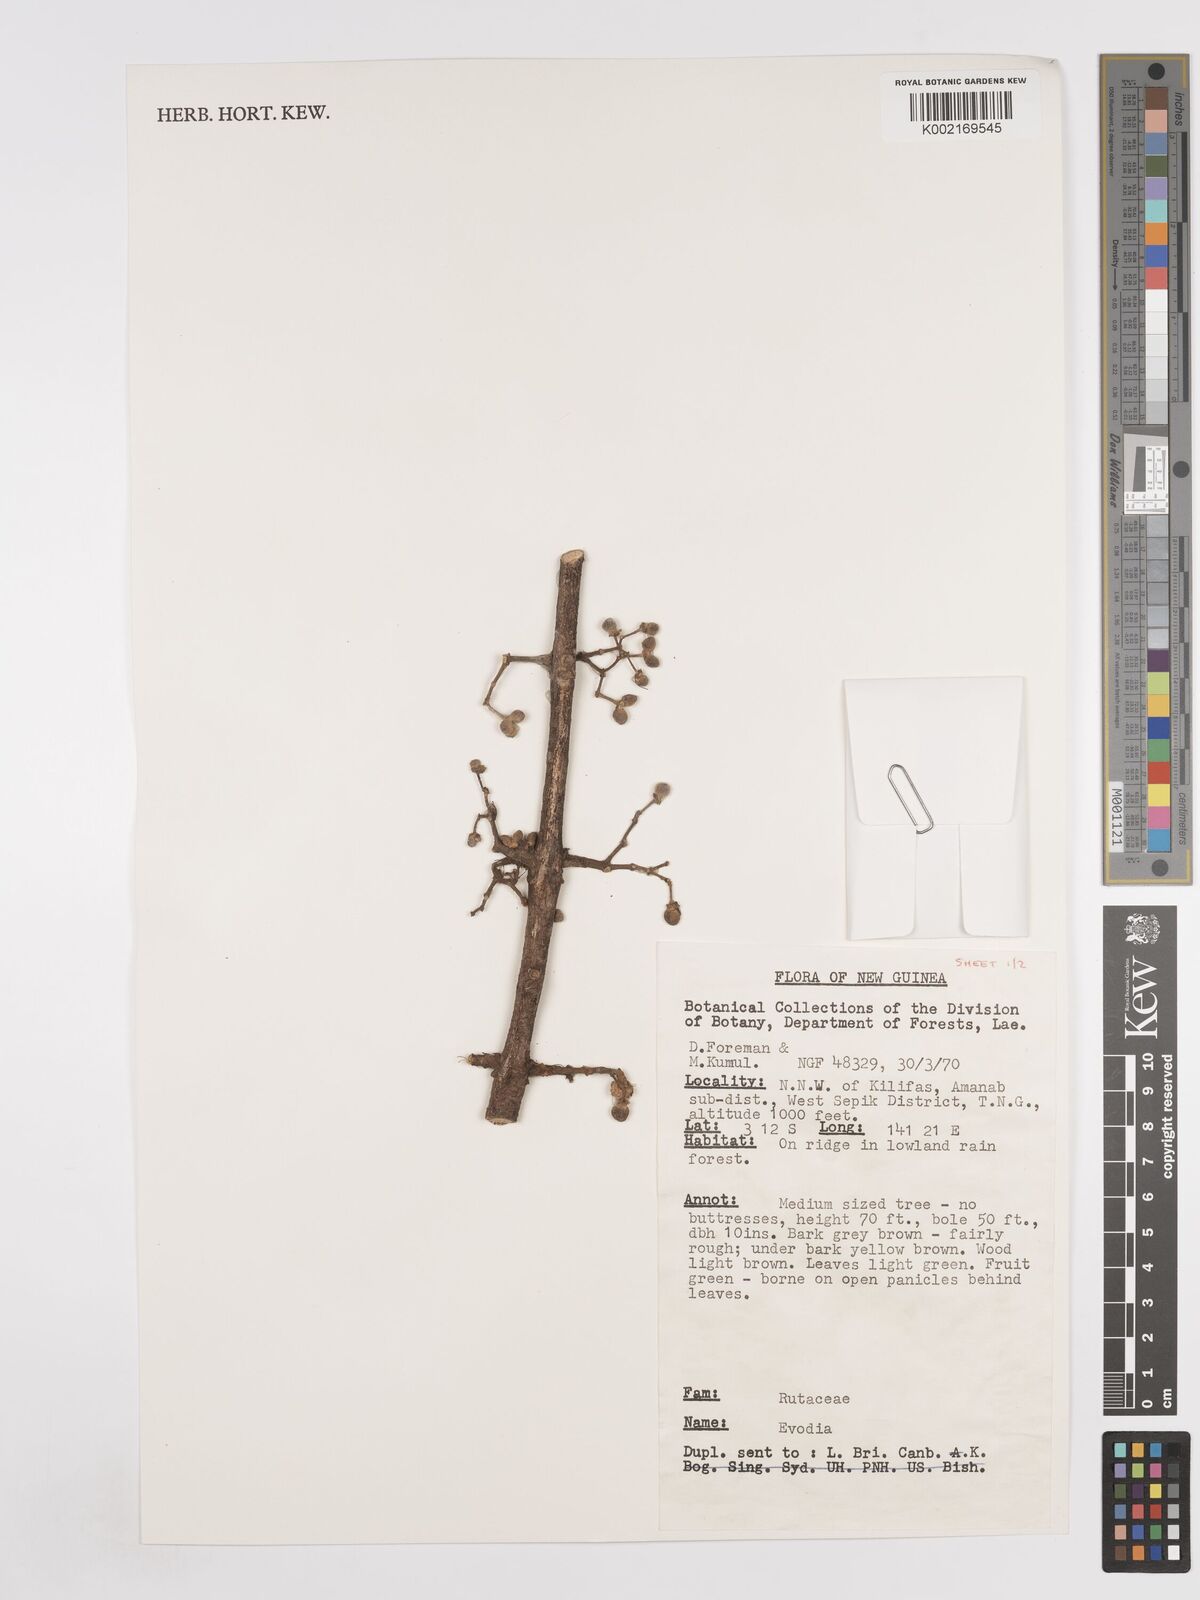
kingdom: Plantae
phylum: Tracheophyta
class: Magnoliopsida
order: Sapindales
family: Rutaceae
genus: Euodia
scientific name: Euodia
